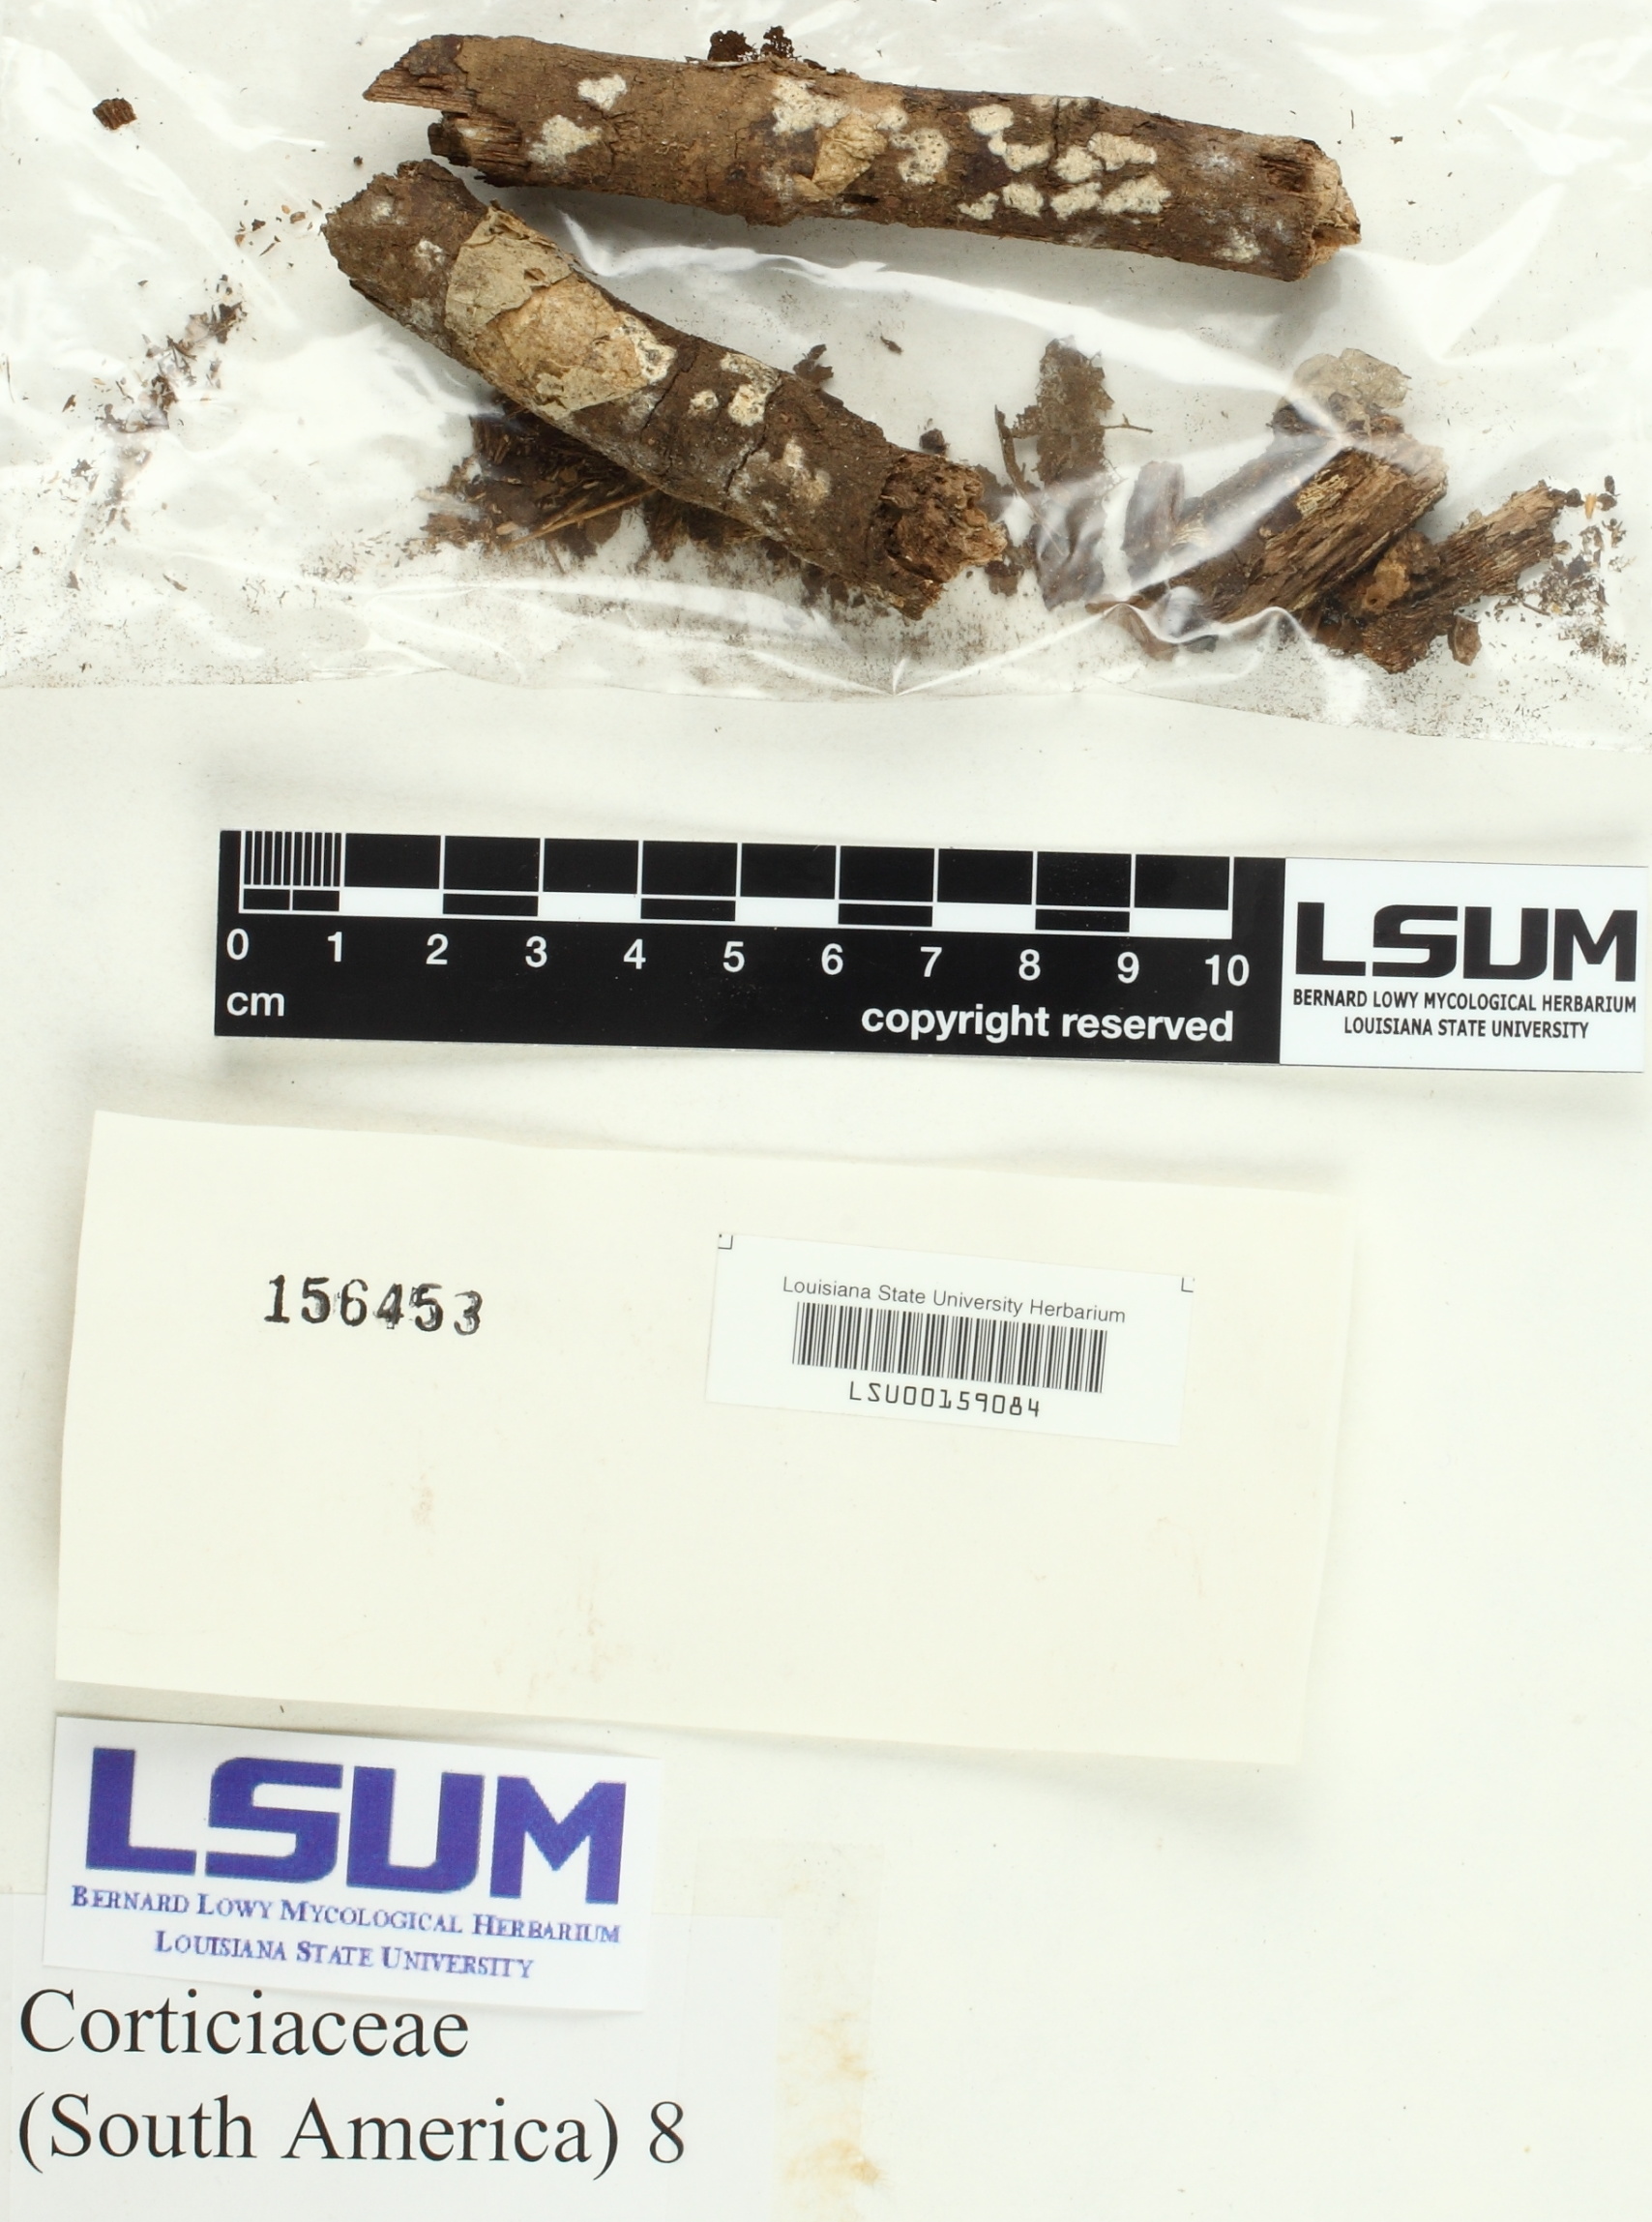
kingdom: Fungi
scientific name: Fungi
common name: Fungi
